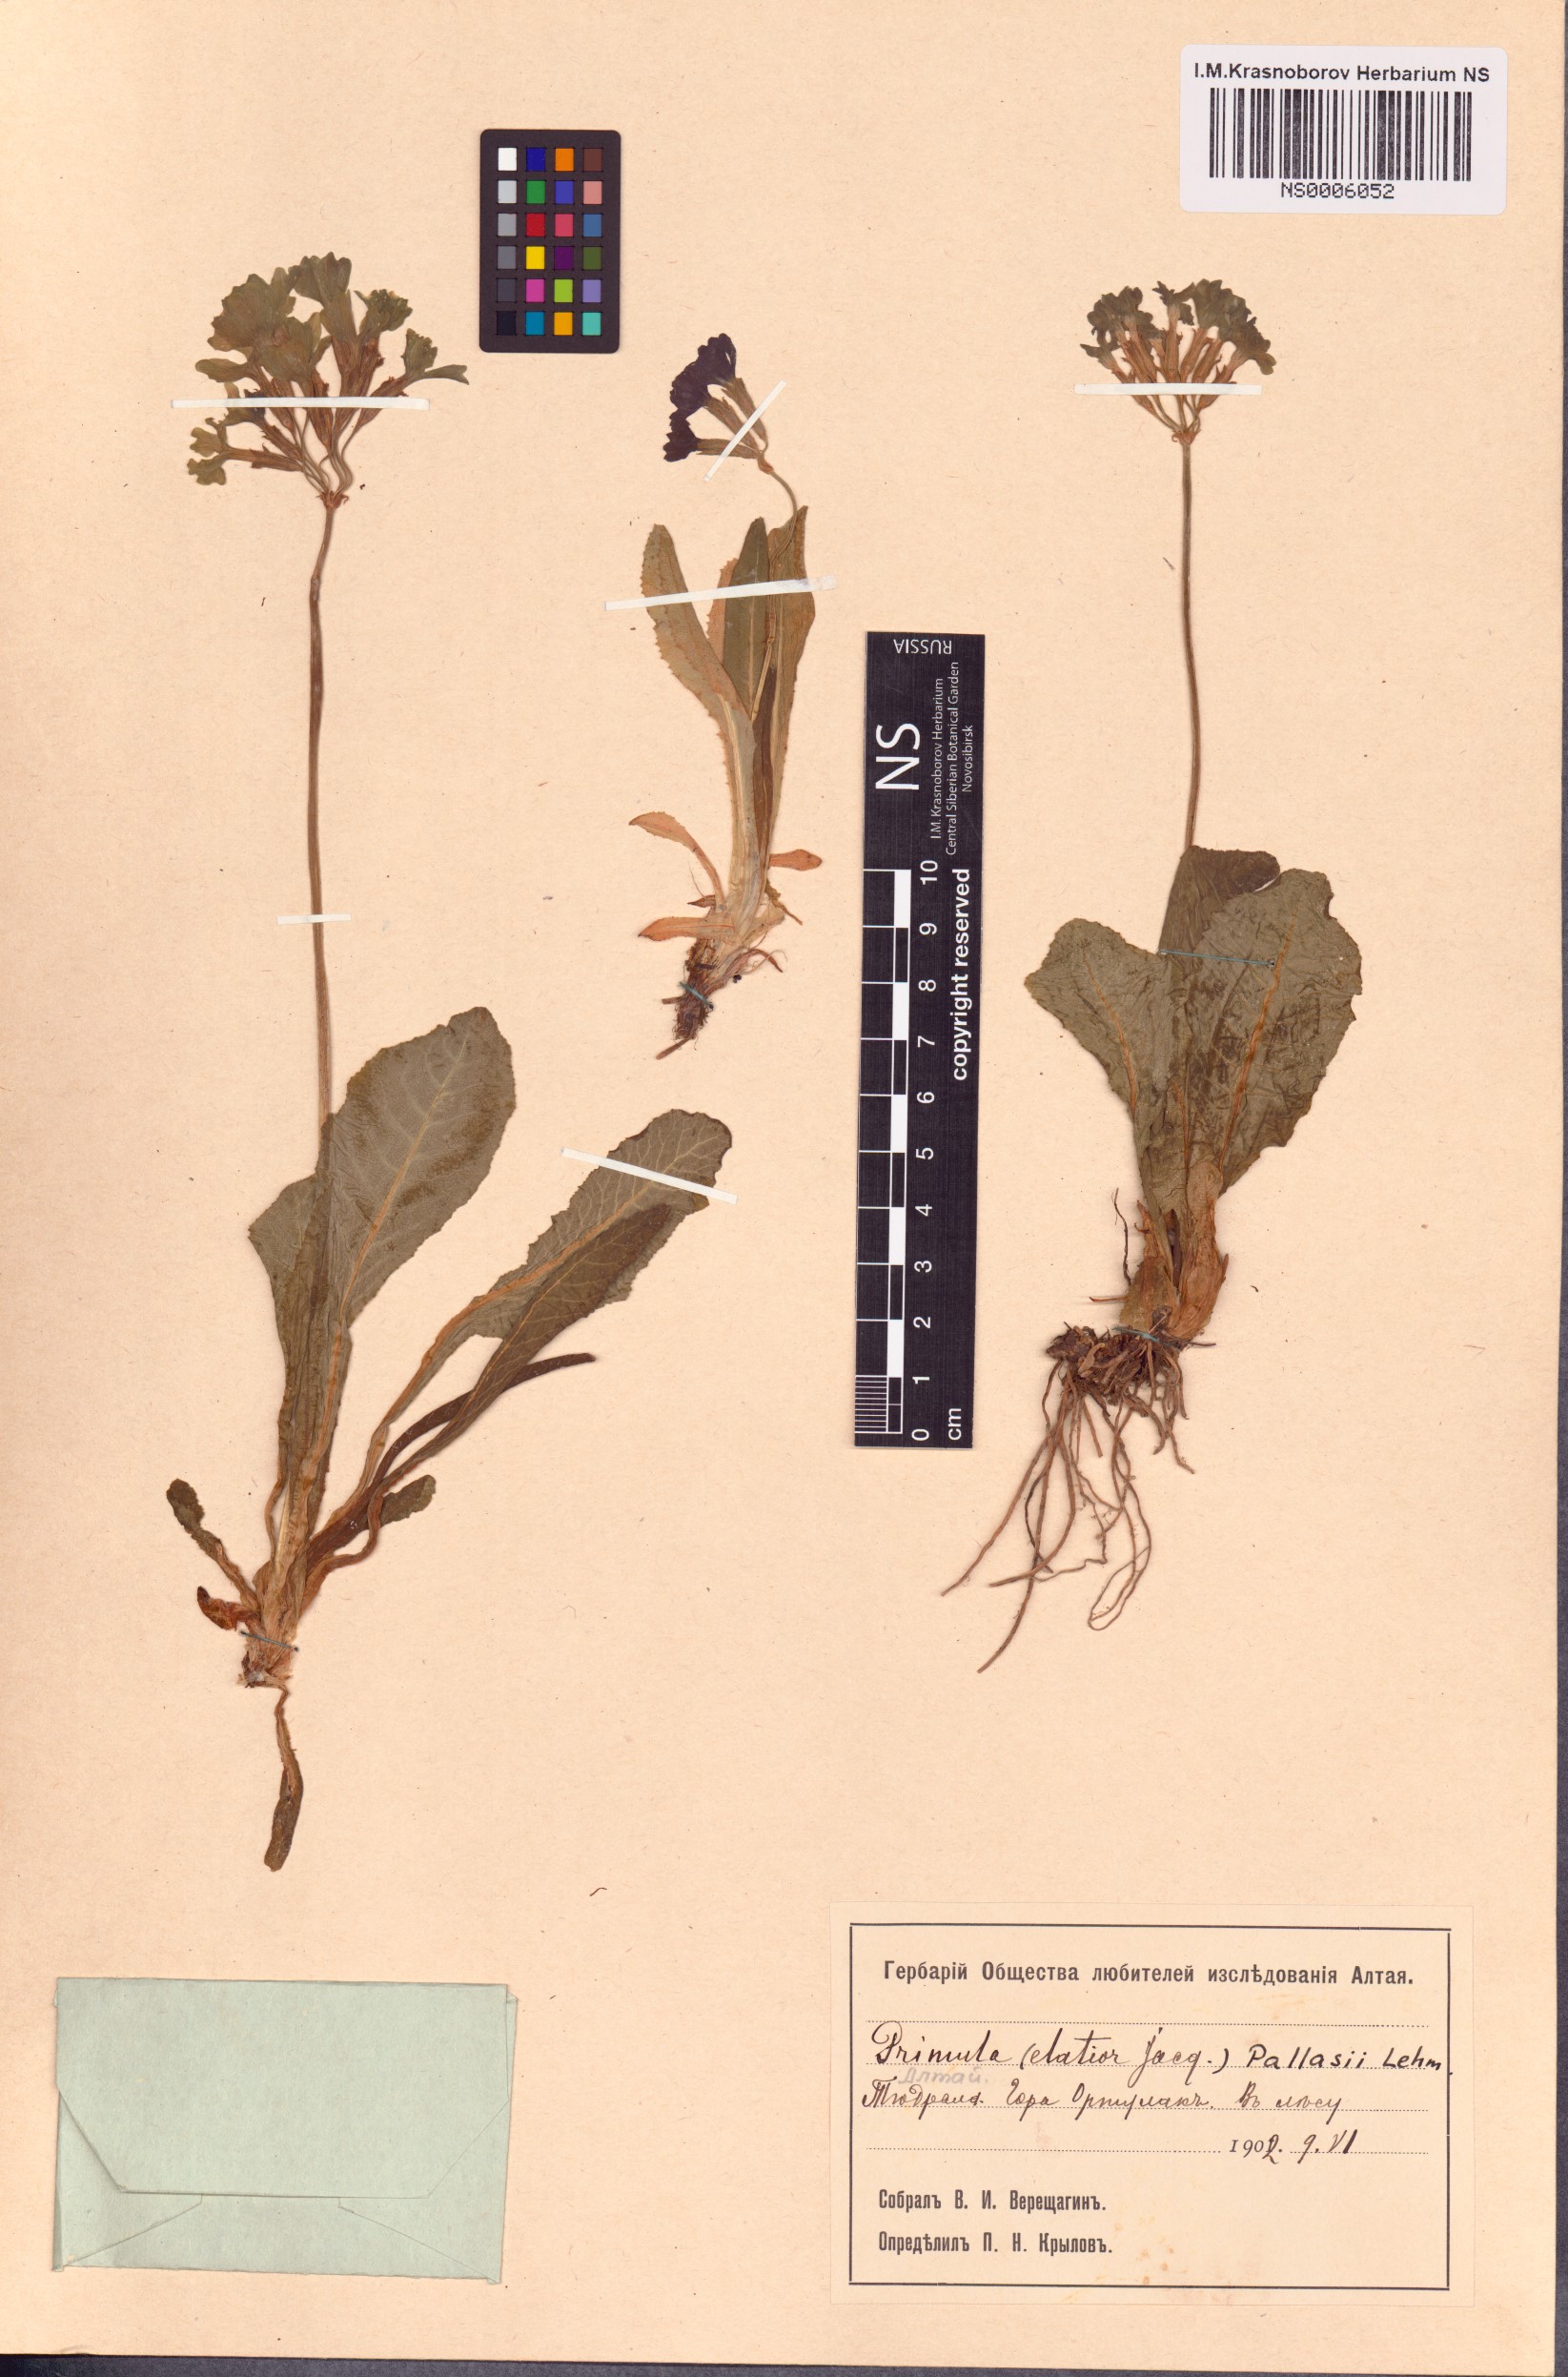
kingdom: Plantae
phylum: Tracheophyta
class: Magnoliopsida
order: Ericales
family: Primulaceae
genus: Primula
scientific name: Primula elatior
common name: Oxlip
